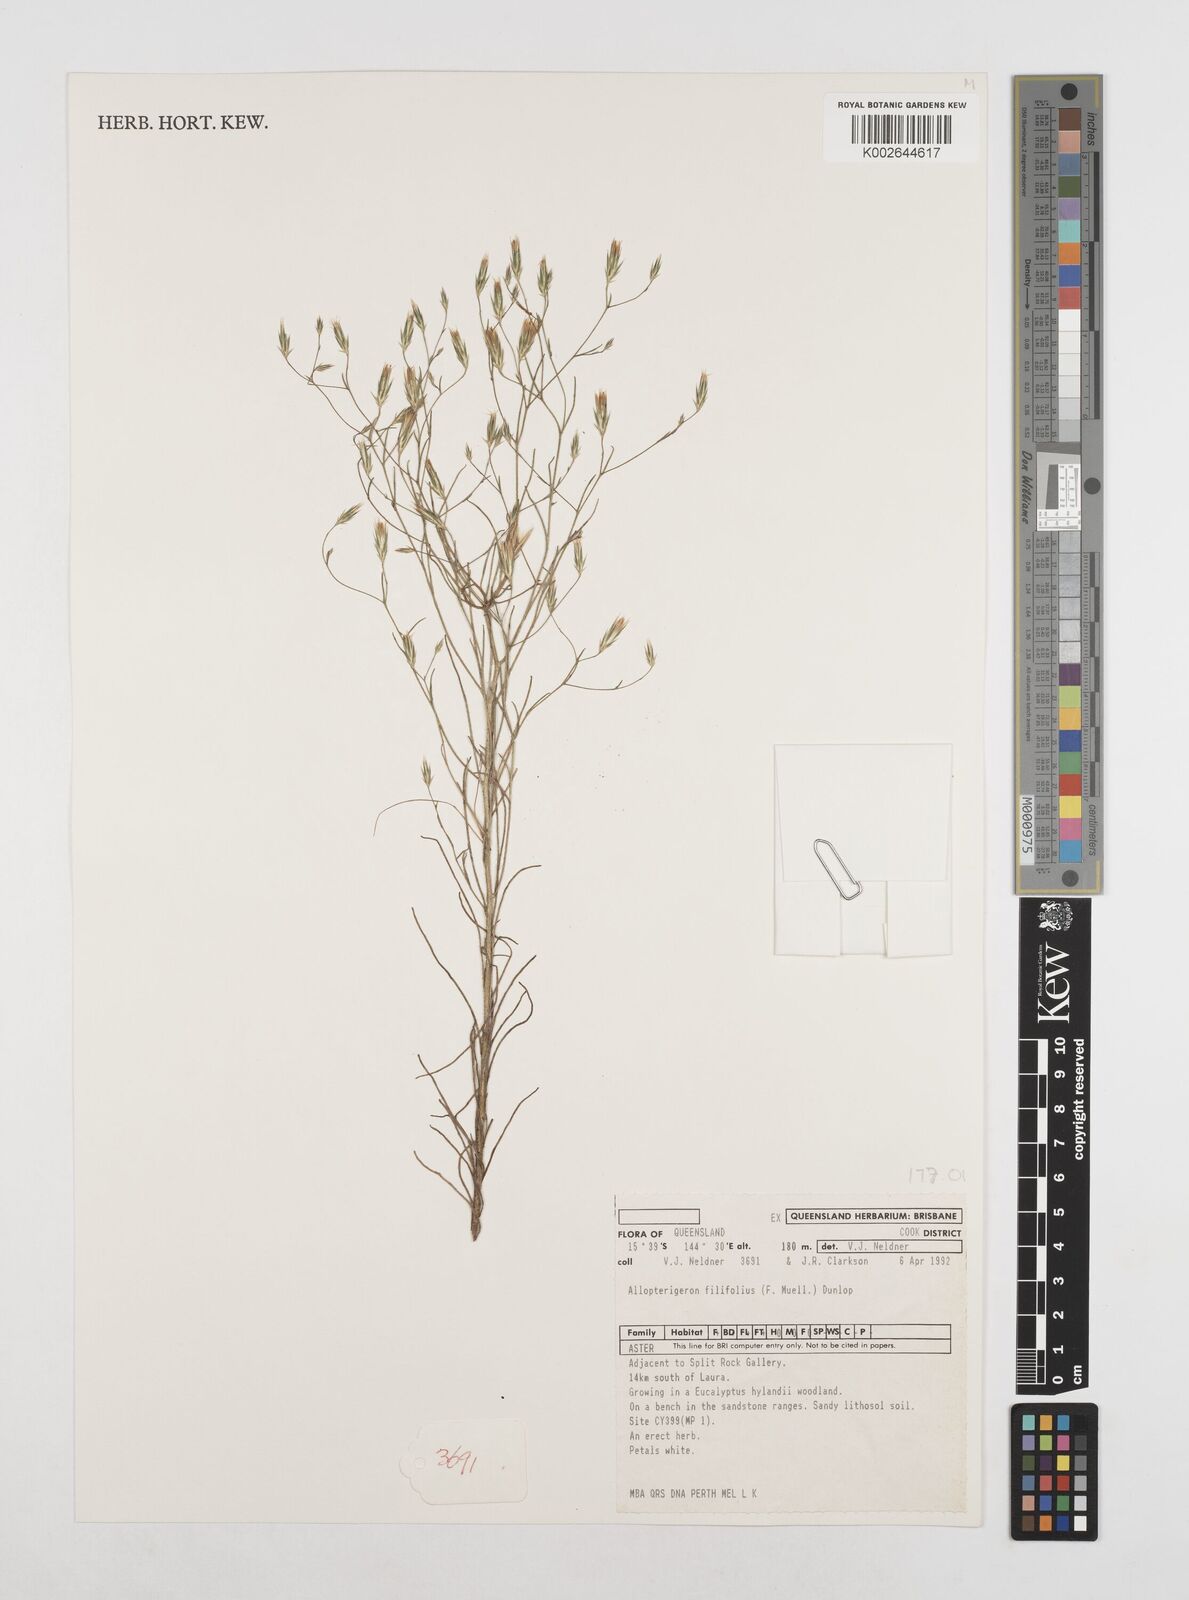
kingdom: Plantae
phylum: Tracheophyta
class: Magnoliopsida
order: Asterales
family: Asteraceae
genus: Allopterigeron
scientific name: Allopterigeron filifolius
